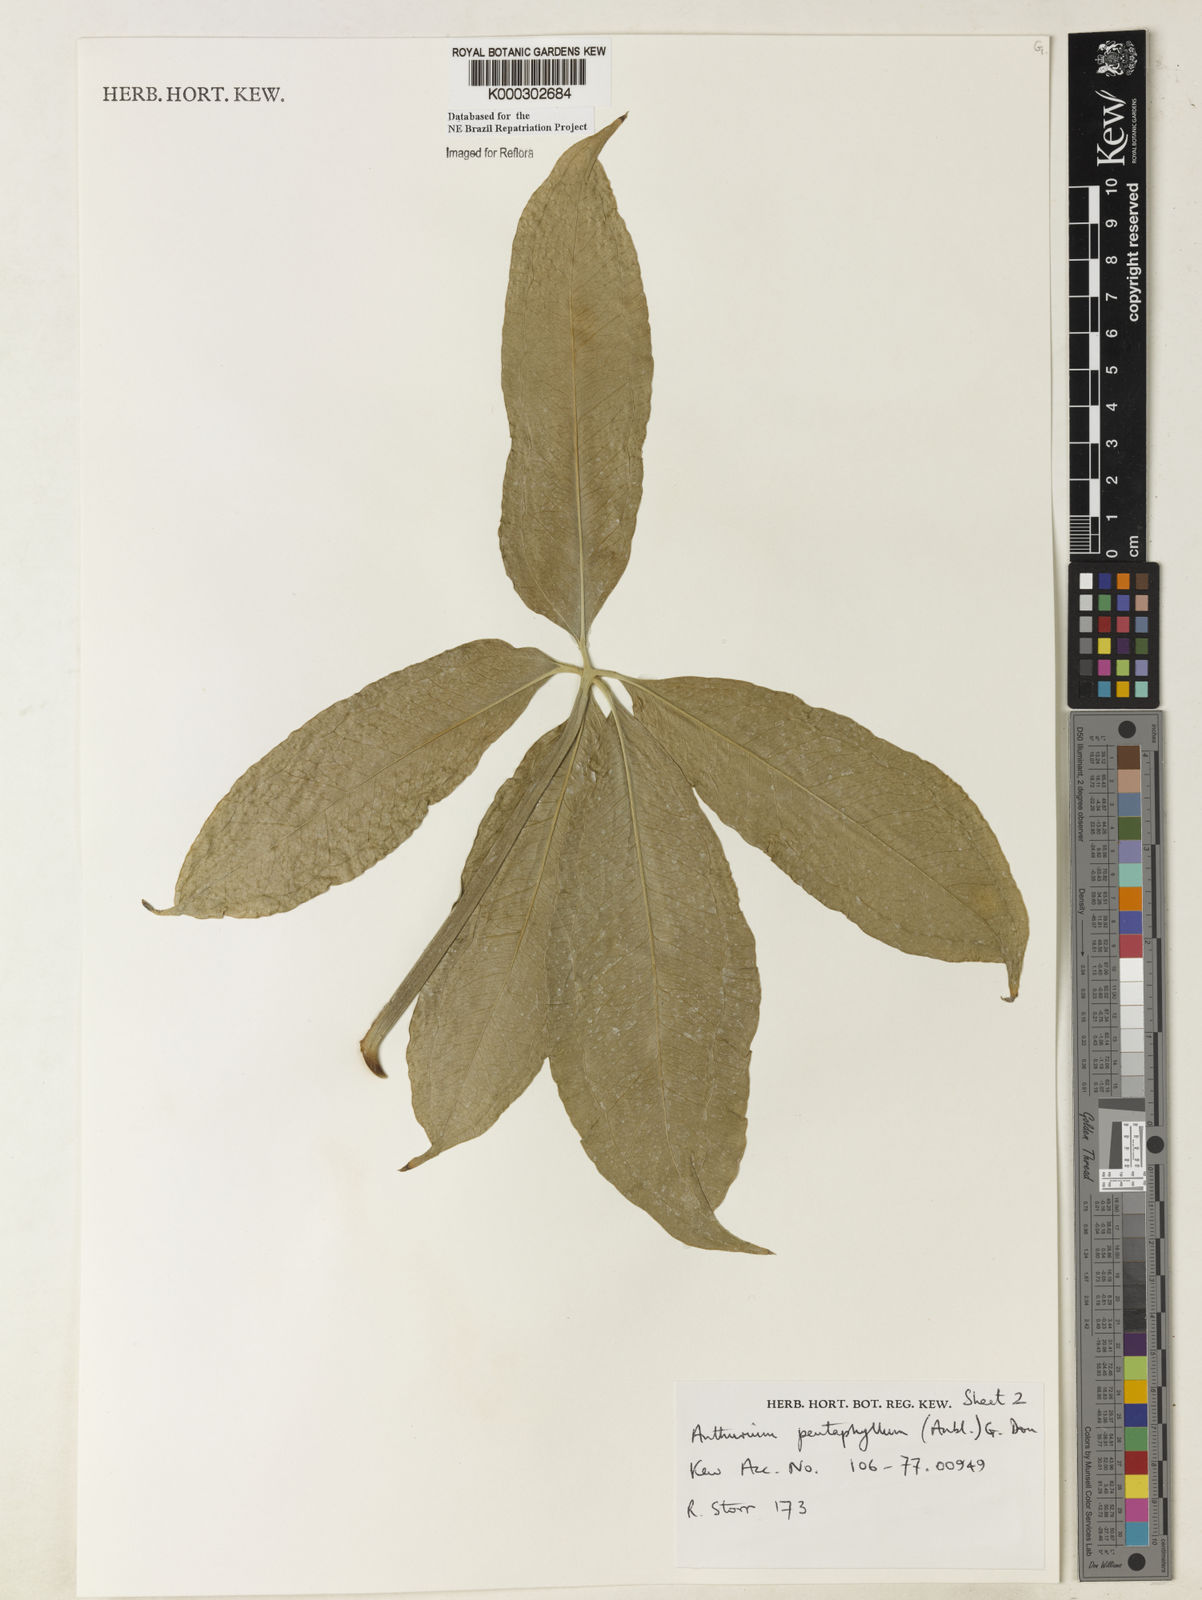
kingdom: Plantae
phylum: Tracheophyta
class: Liliopsida
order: Alismatales
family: Araceae
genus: Anthurium
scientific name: Anthurium pentaphyllum
